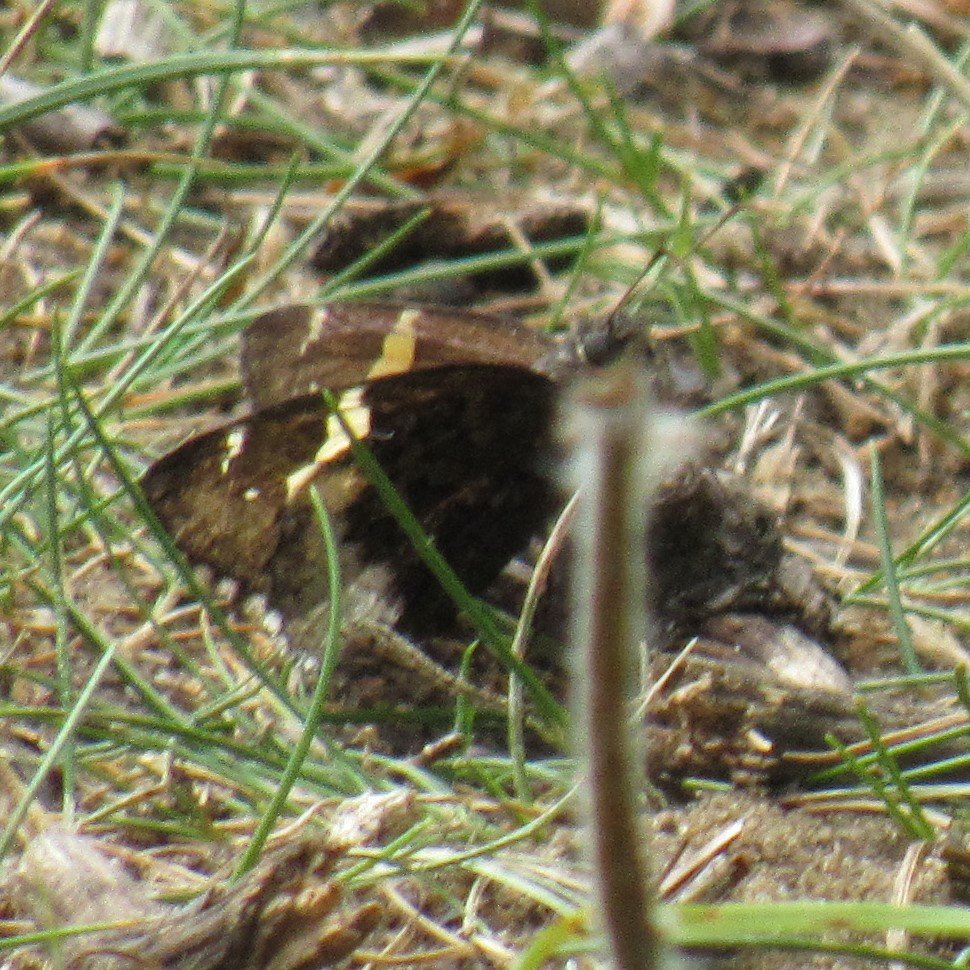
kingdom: Animalia
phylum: Arthropoda
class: Insecta
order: Lepidoptera
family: Hesperiidae
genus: Achalarus
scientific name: Achalarus lyciades
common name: Hoary Edge
